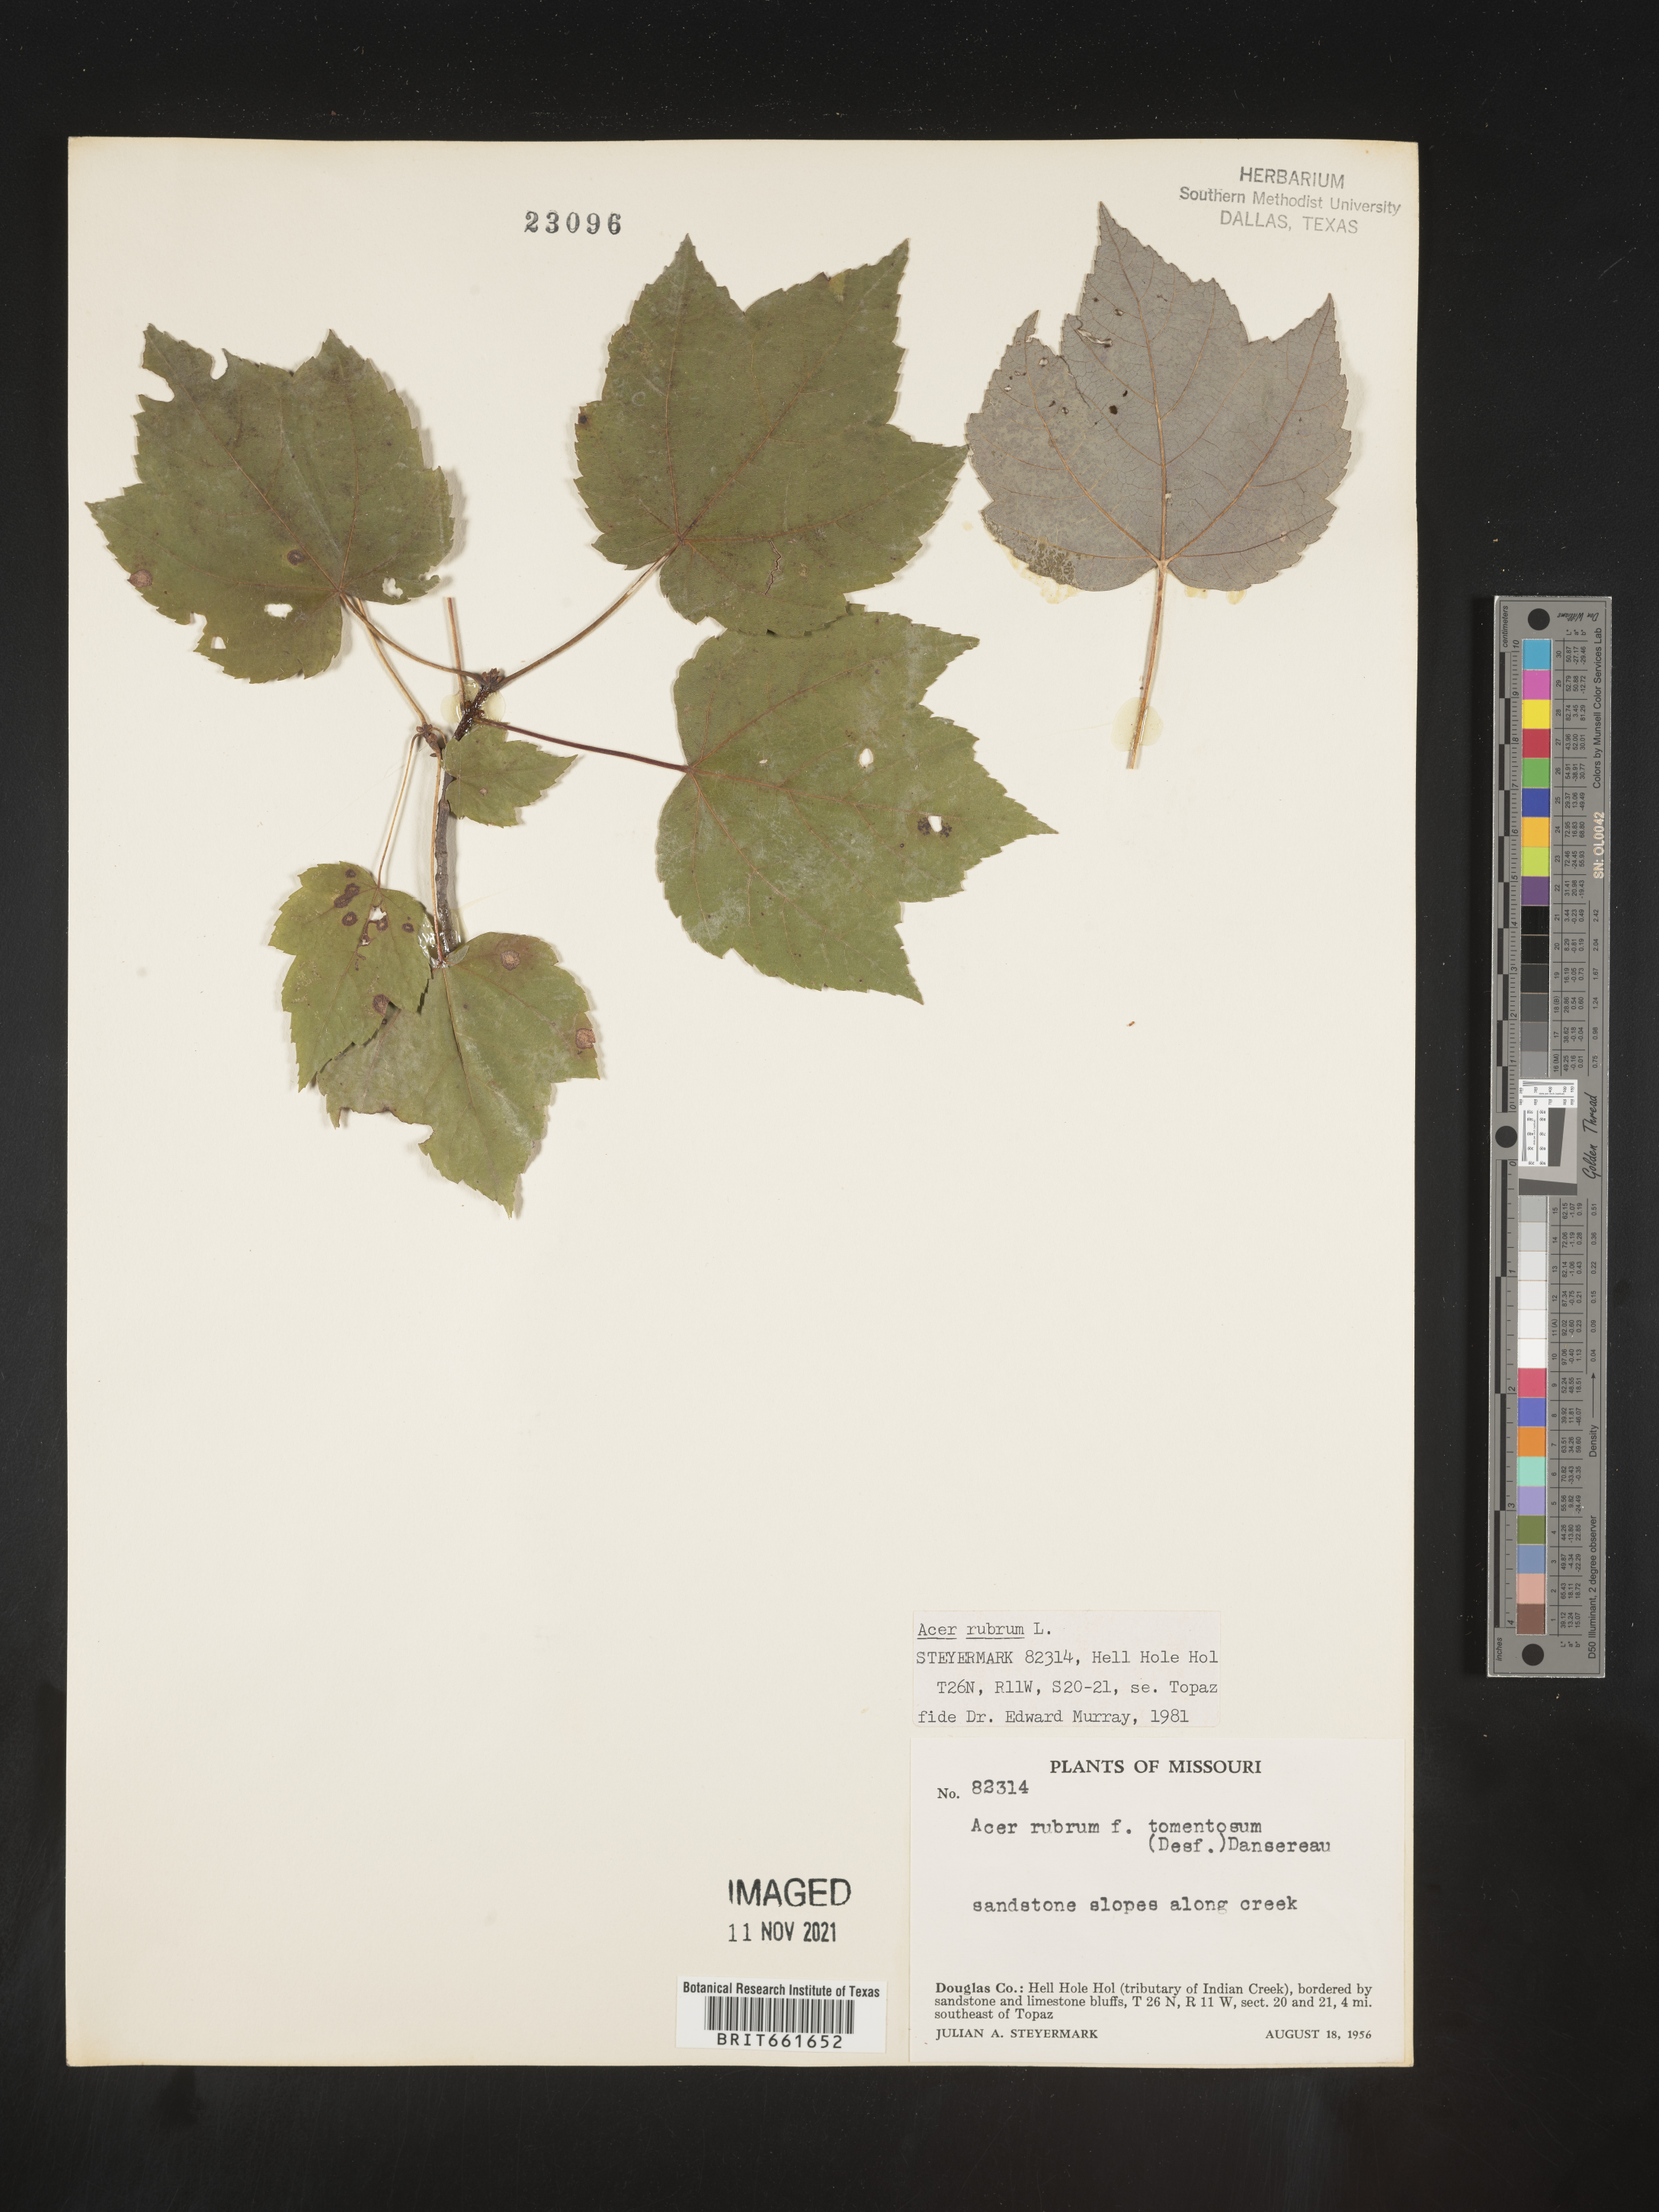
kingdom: Plantae
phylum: Tracheophyta
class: Magnoliopsida
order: Sapindales
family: Sapindaceae
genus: Acer
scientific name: Acer rubrum
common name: Red maple
